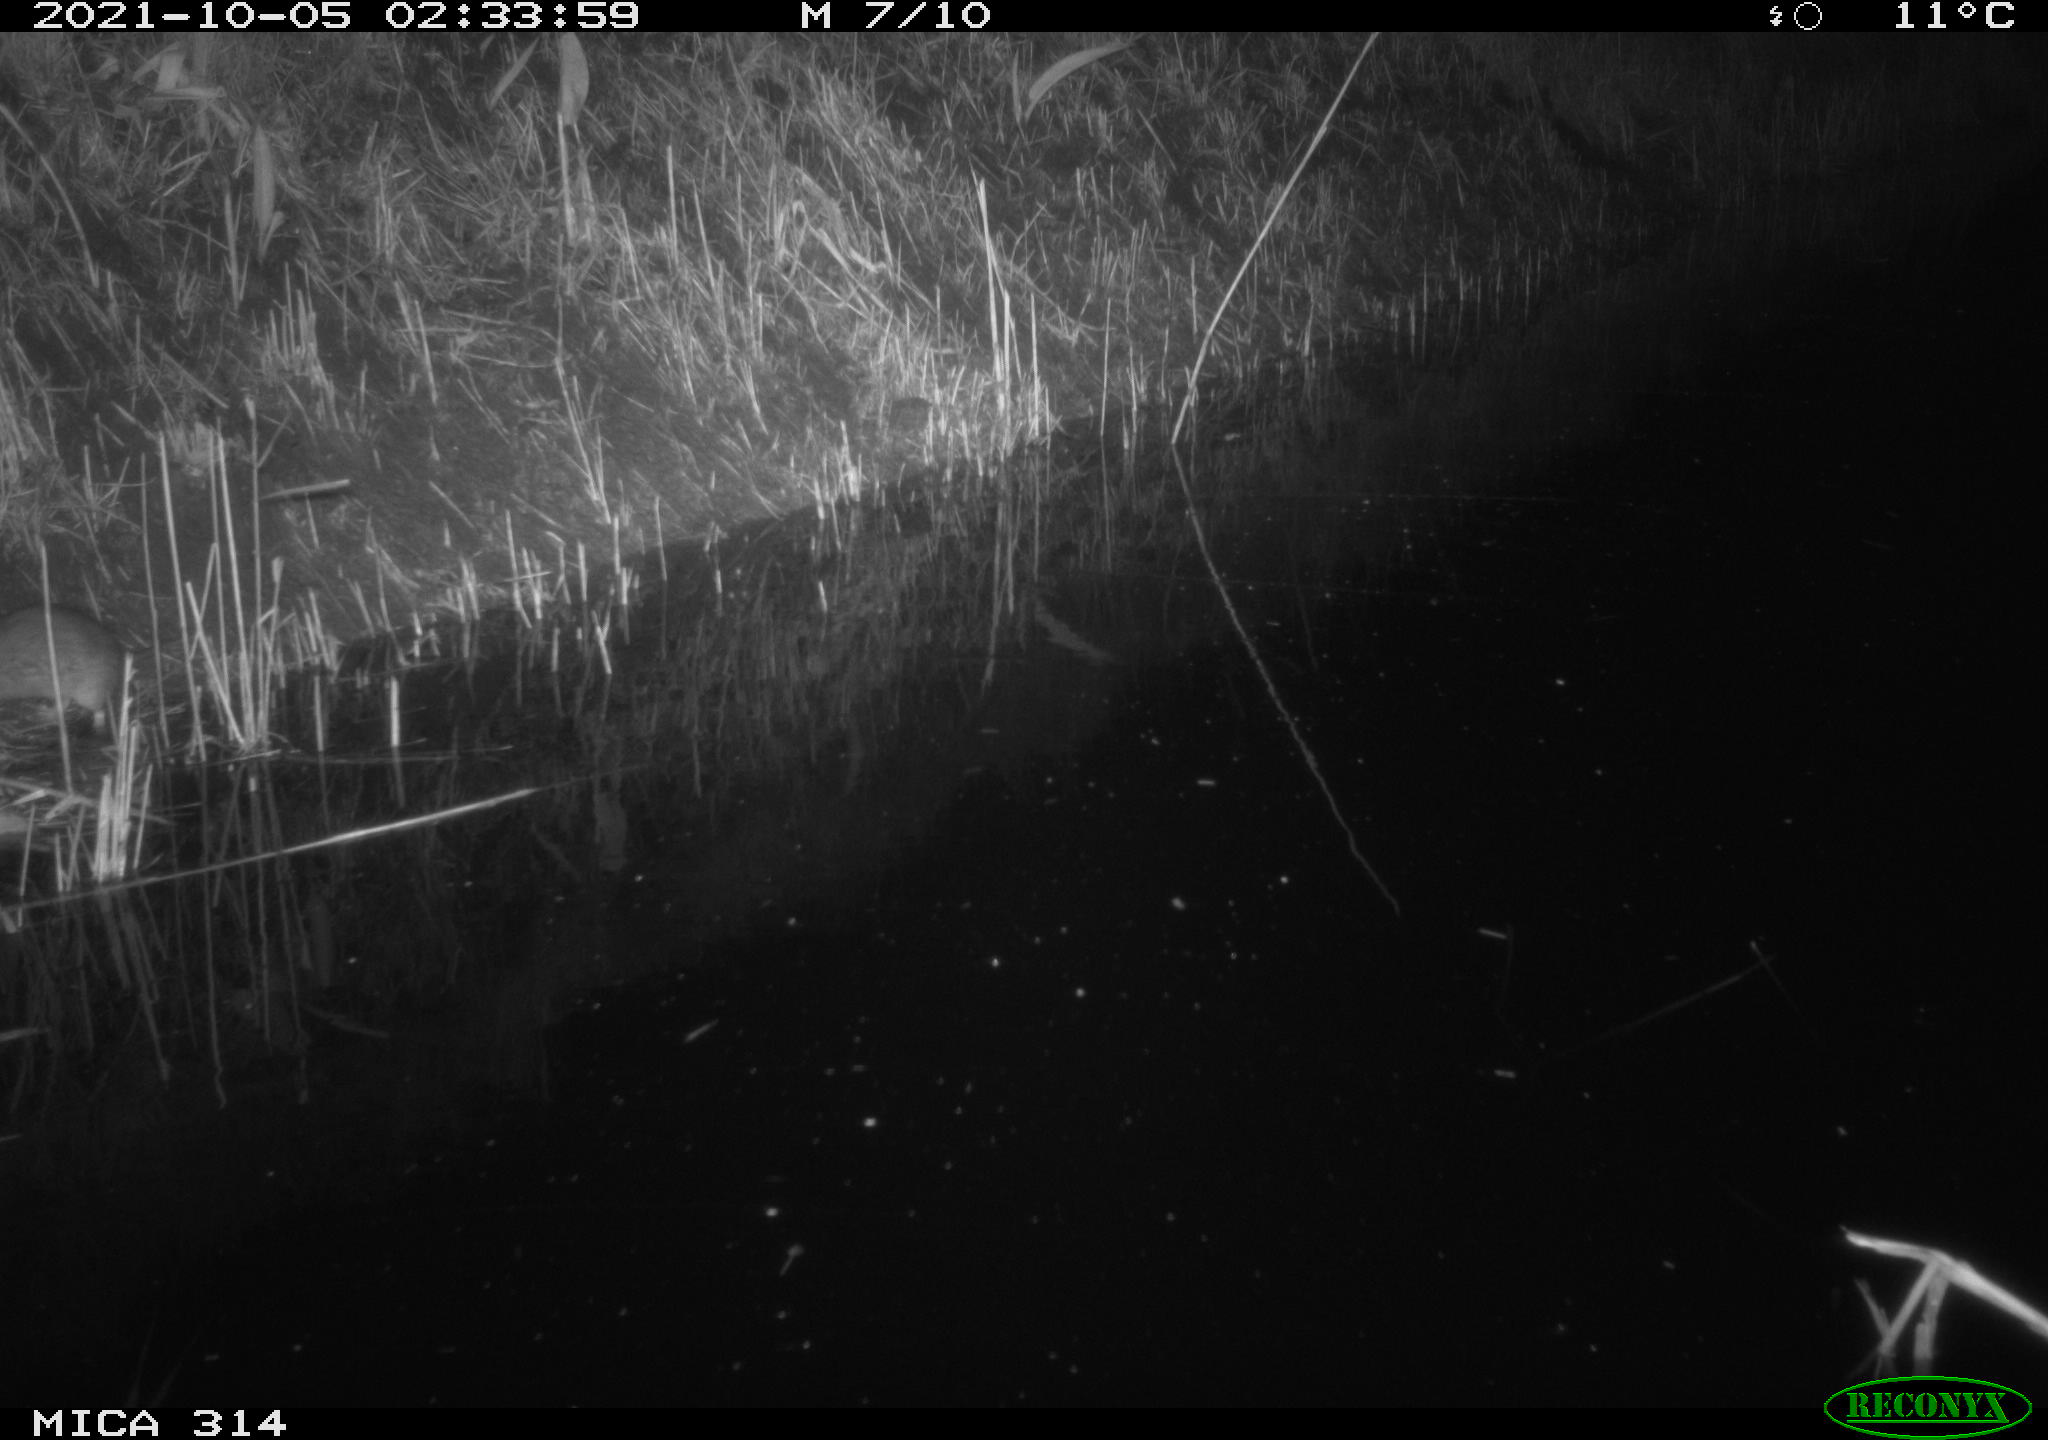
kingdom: Animalia
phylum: Chordata
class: Mammalia
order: Rodentia
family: Muridae
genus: Rattus
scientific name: Rattus norvegicus
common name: Brown rat
